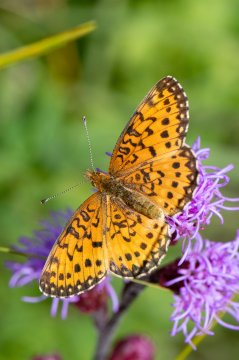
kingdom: Animalia
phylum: Arthropoda
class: Insecta
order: Lepidoptera
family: Nymphalidae
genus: Boloria
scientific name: Boloria selene
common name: Silver-bordered Fritillary
